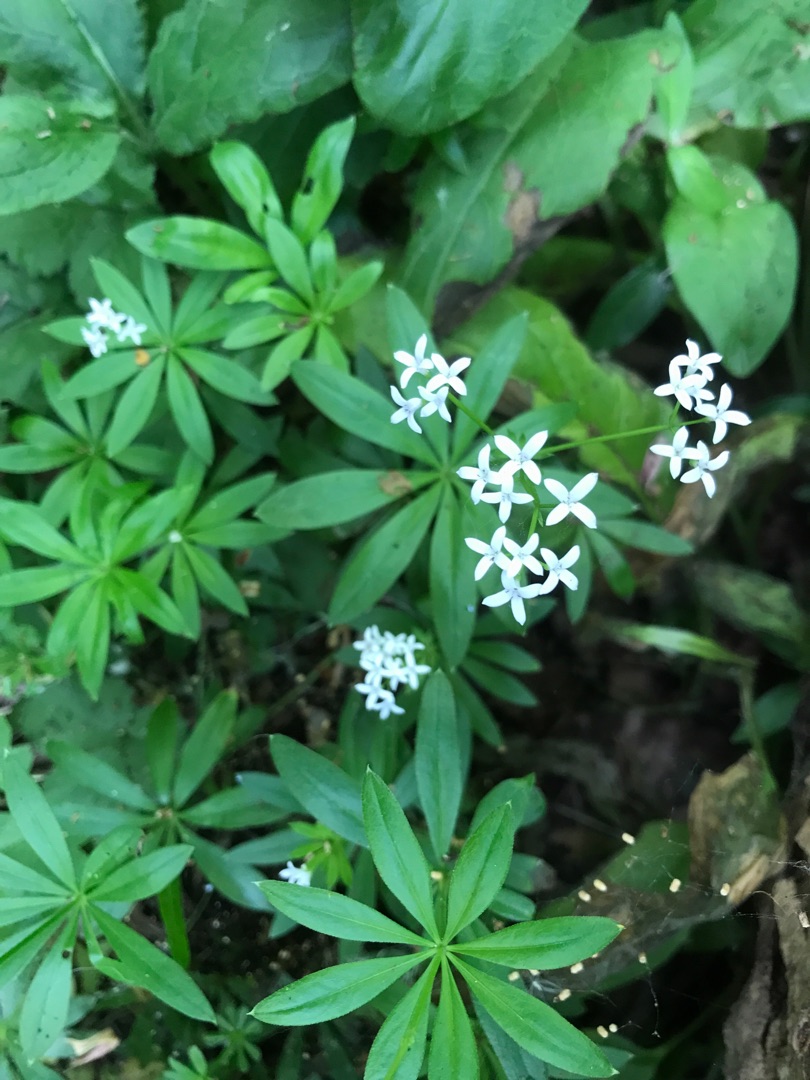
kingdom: Plantae
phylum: Tracheophyta
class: Magnoliopsida
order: Gentianales
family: Rubiaceae
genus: Galium
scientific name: Galium odoratum
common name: Skovmærke
